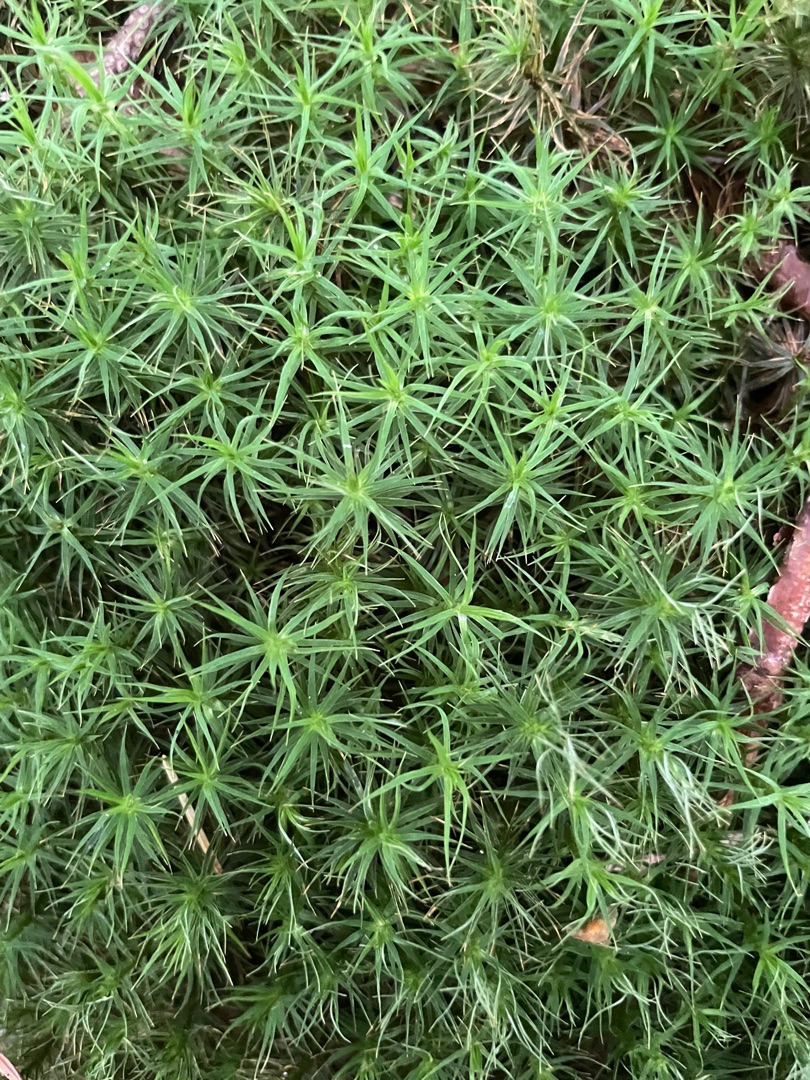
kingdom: Plantae
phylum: Bryophyta
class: Polytrichopsida
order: Polytrichales
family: Polytrichaceae
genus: Polytrichum
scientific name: Polytrichum formosum
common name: Skov-jomfruhår
